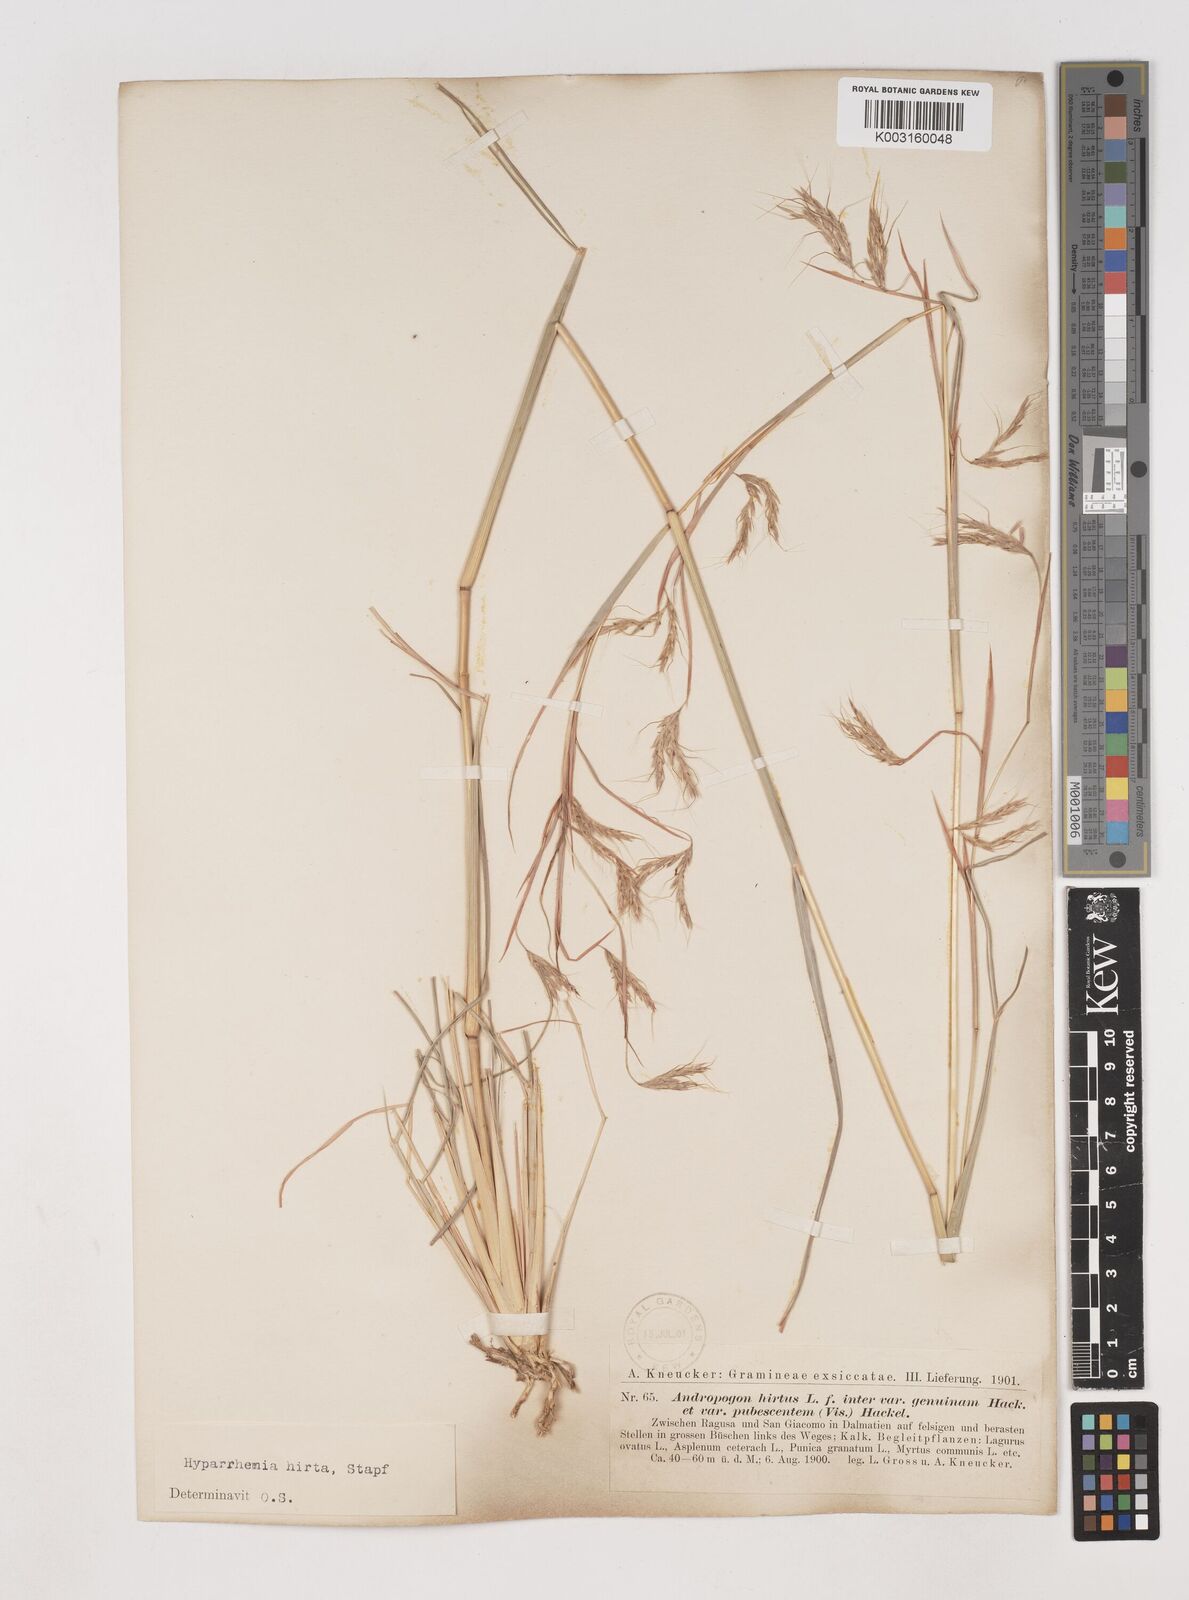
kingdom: Plantae
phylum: Tracheophyta
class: Liliopsida
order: Poales
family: Poaceae
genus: Hyparrhenia
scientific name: Hyparrhenia hirta
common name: Thatching grass
